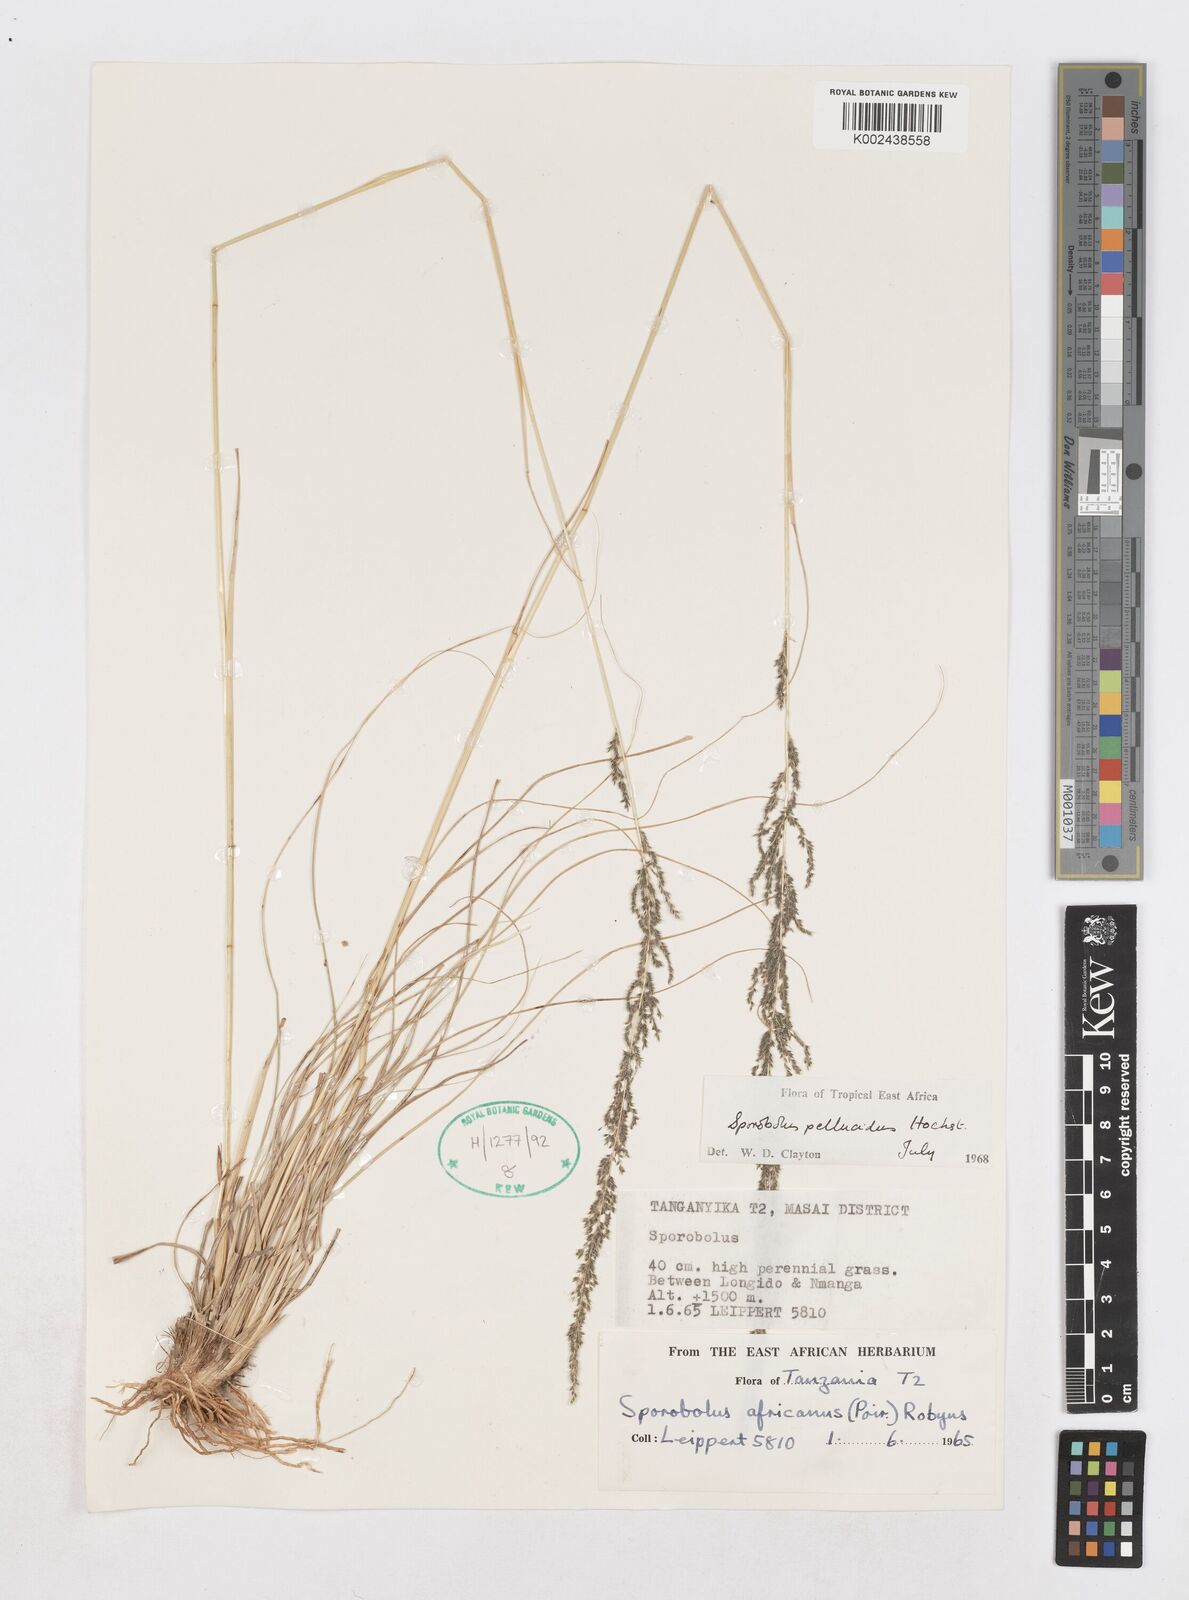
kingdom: Plantae
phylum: Tracheophyta
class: Liliopsida
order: Poales
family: Poaceae
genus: Sporobolus
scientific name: Sporobolus pellucidus
